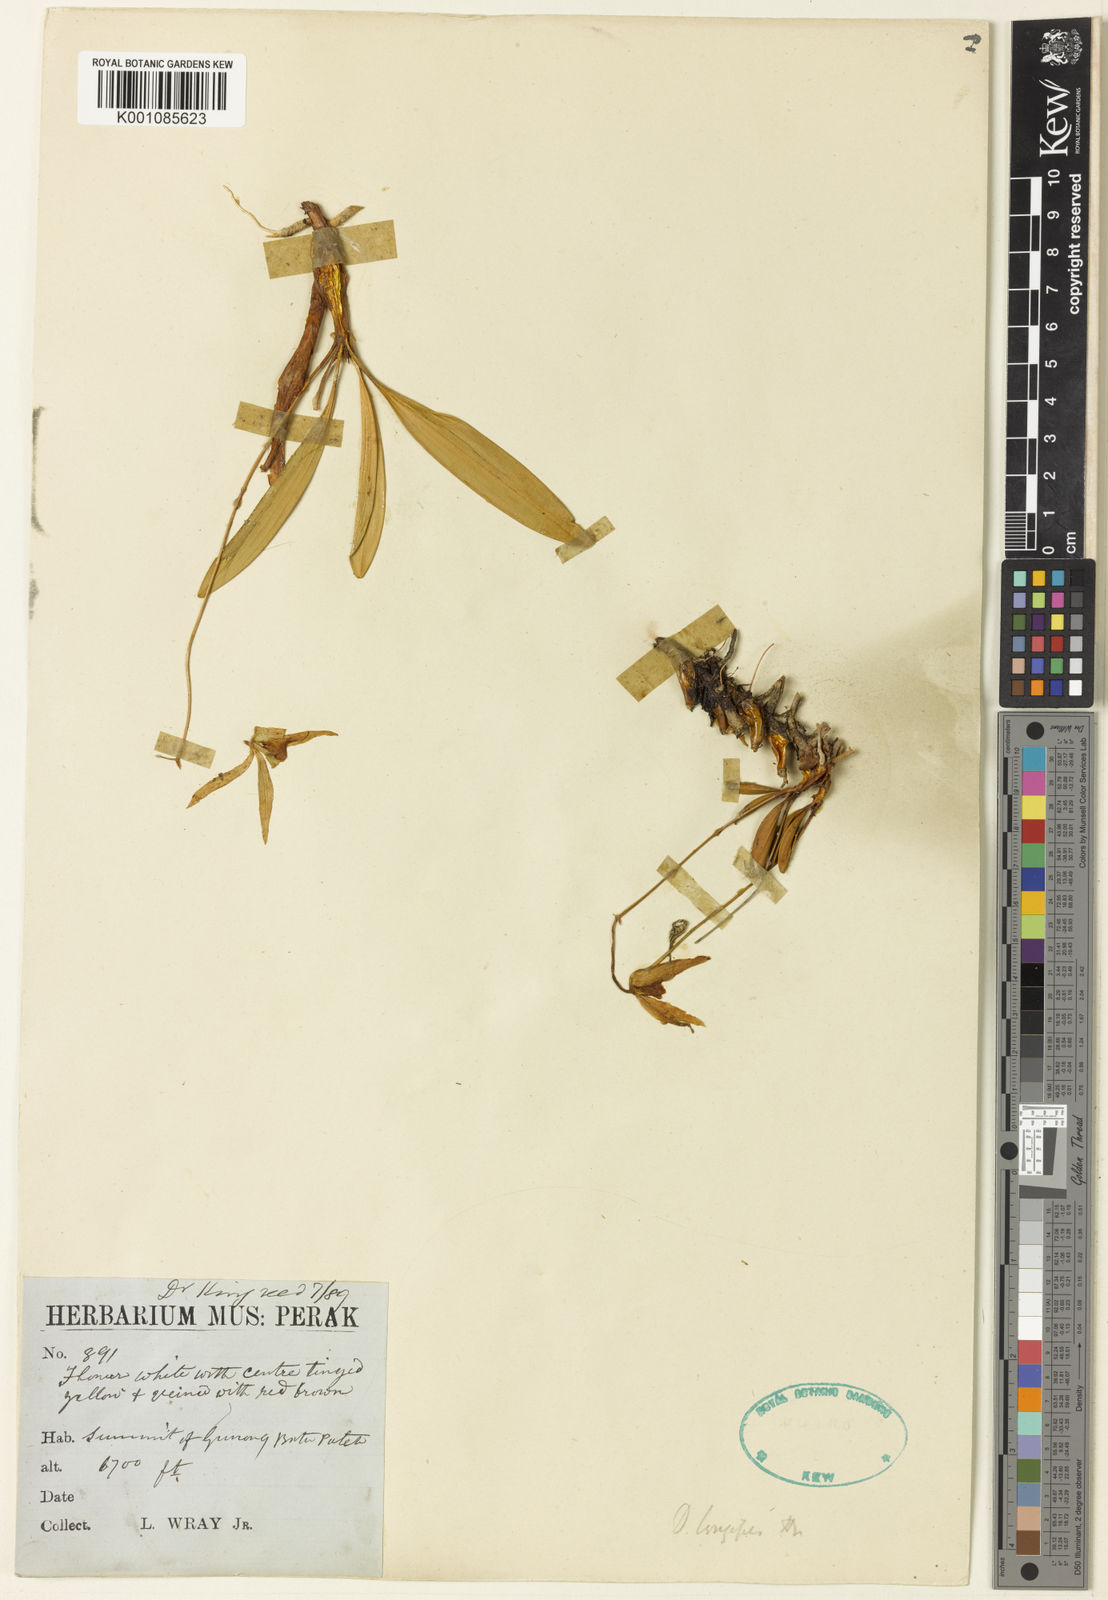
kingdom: Plantae
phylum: Tracheophyta
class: Liliopsida
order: Asparagales
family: Orchidaceae
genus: Dendrobium
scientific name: Dendrobium longipes
